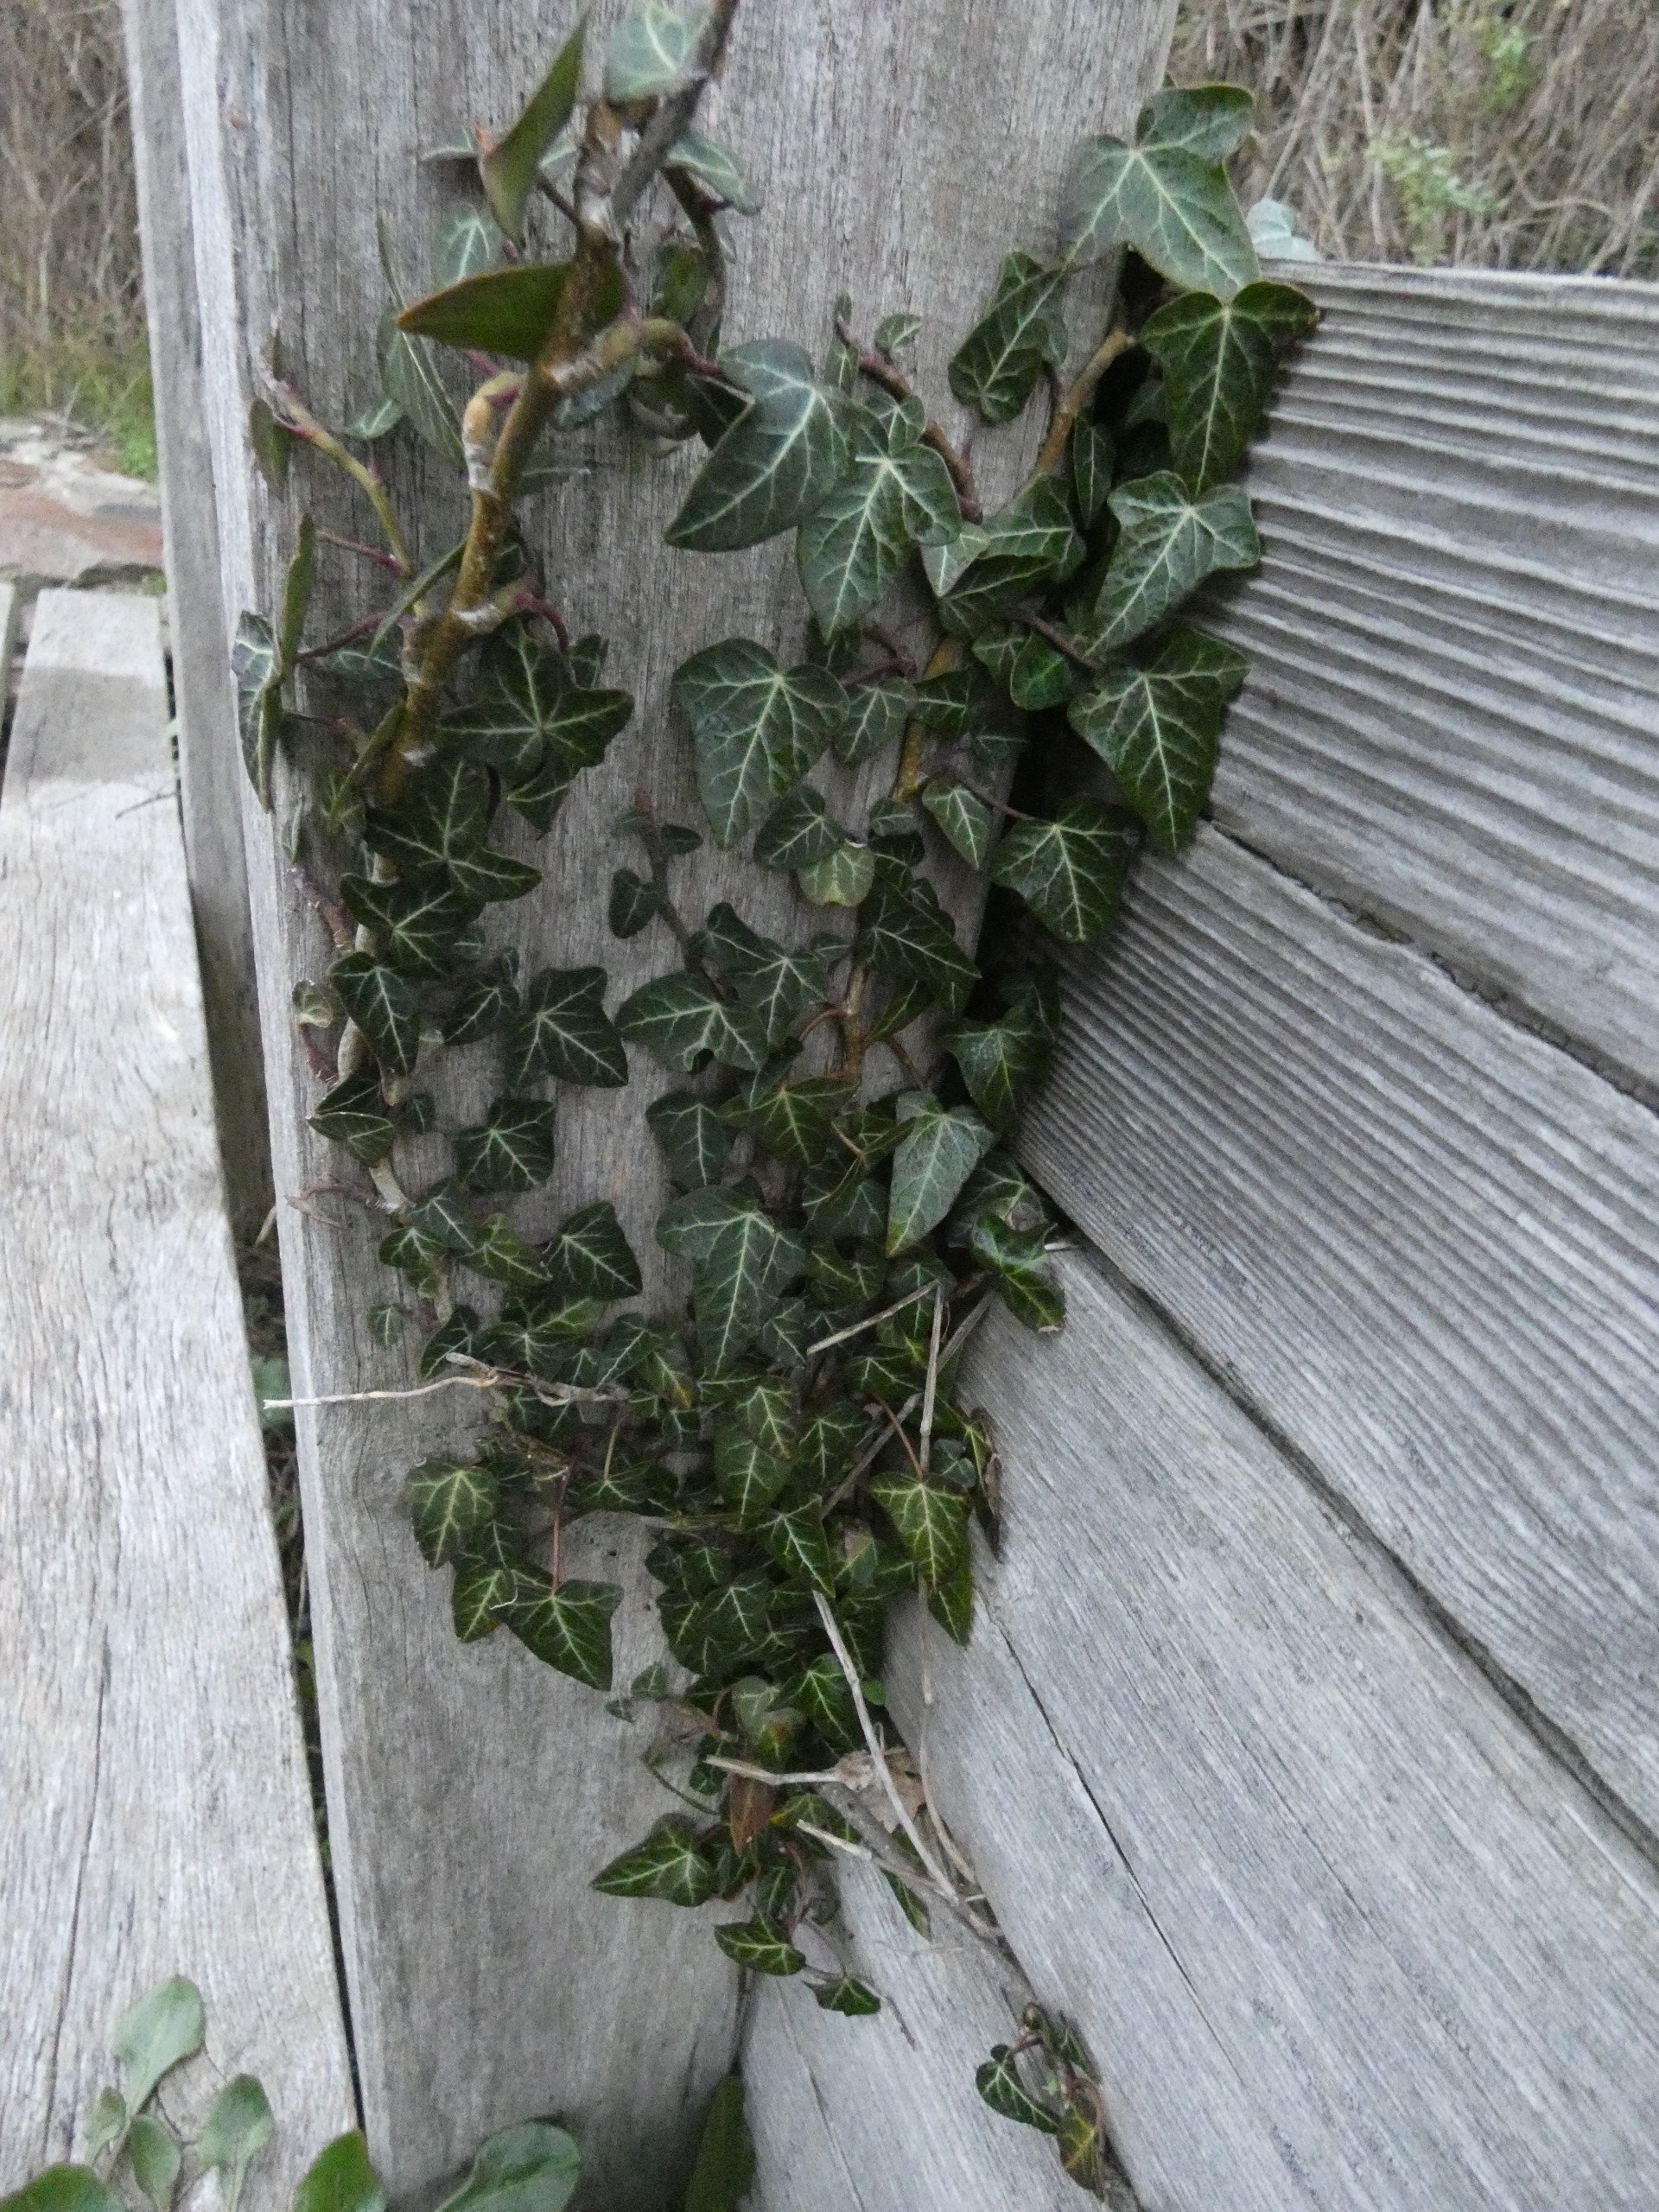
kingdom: Plantae
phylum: Tracheophyta
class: Magnoliopsida
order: Apiales
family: Araliaceae
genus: Hedera
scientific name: Hedera helix
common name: Vedbend
